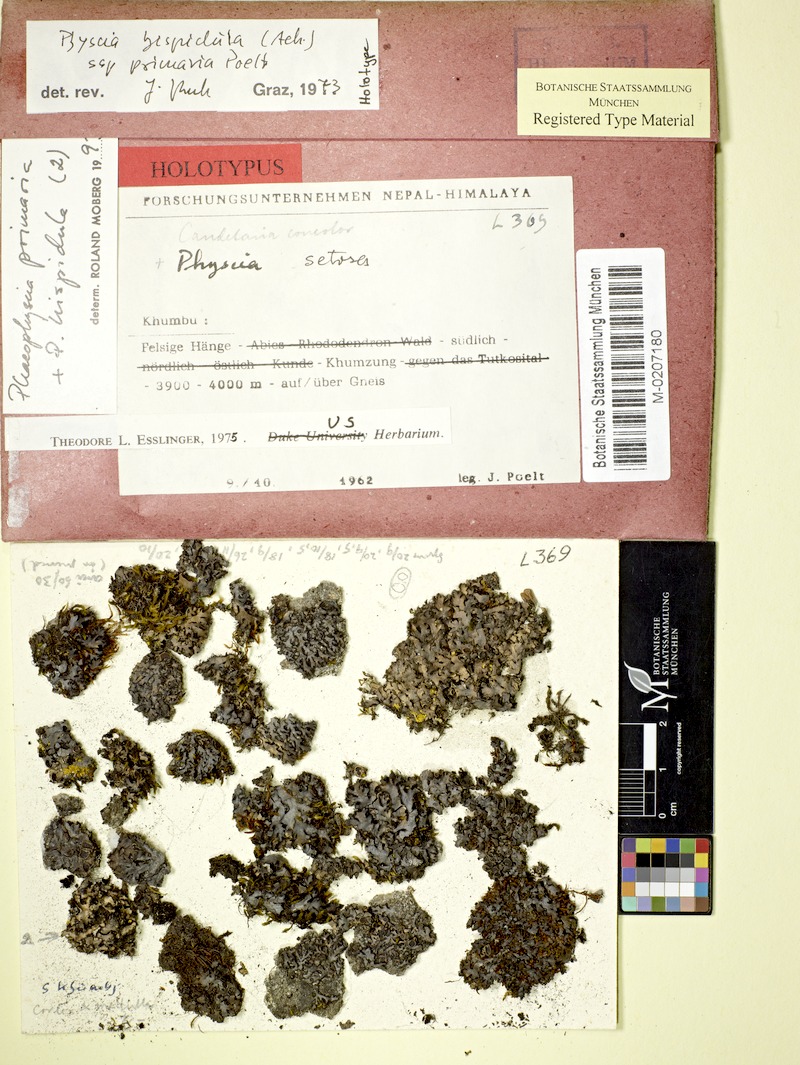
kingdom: Fungi
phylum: Ascomycota
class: Lecanoromycetes
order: Caliciales
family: Physciaceae
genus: Phaeophyscia
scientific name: Phaeophyscia primaria
